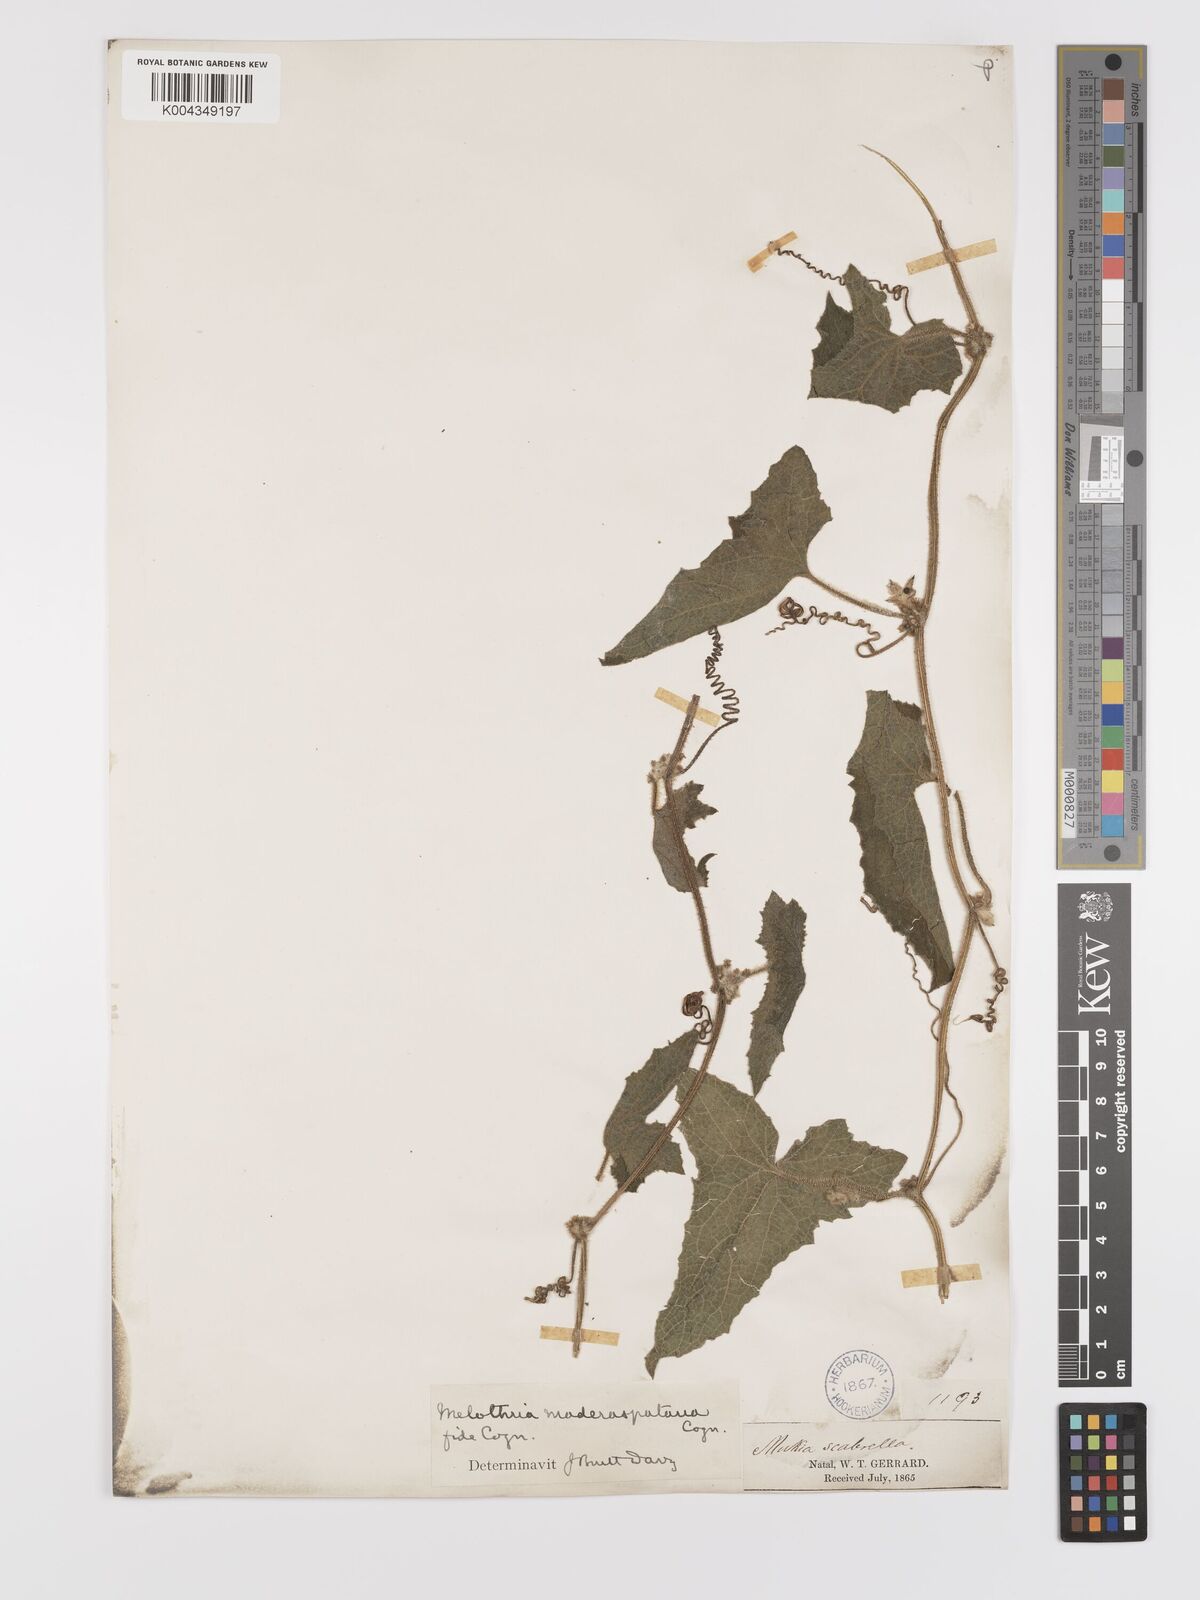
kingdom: Plantae
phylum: Tracheophyta
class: Magnoliopsida
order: Cucurbitales
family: Cucurbitaceae
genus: Cucumis
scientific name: Cucumis maderaspatanus
